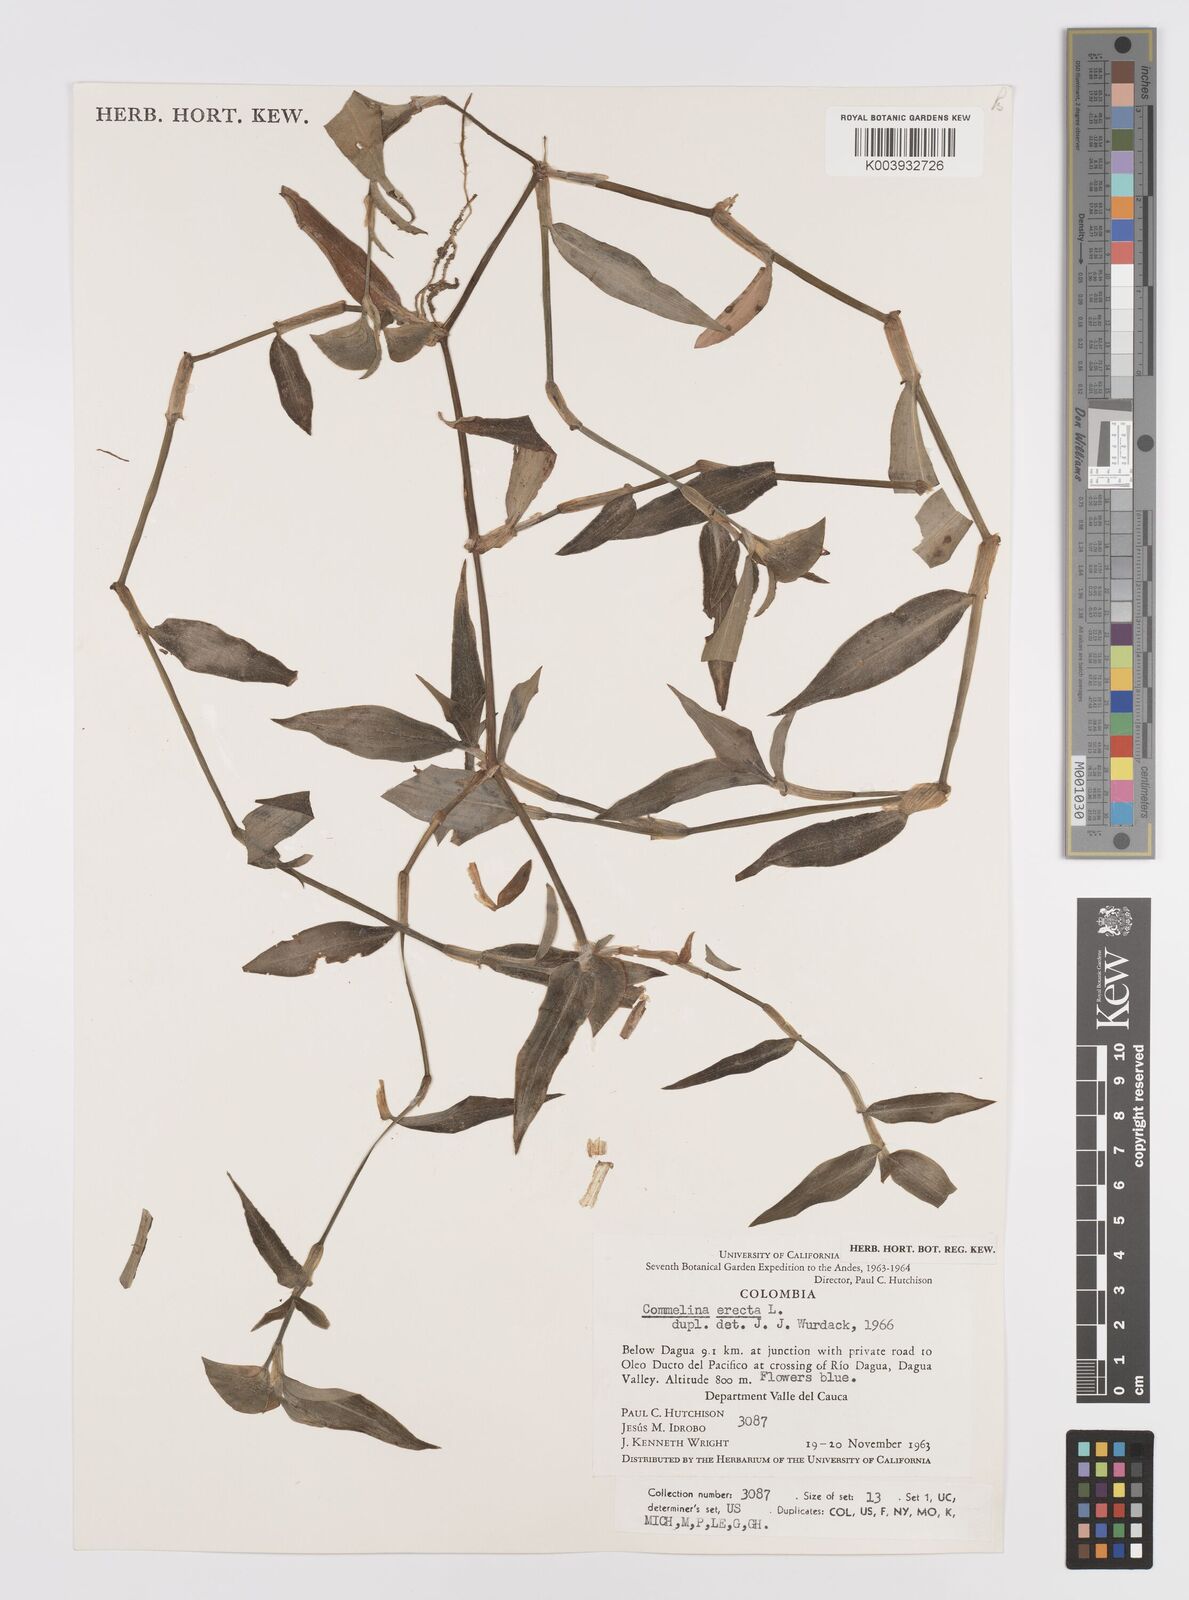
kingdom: Plantae
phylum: Tracheophyta
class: Liliopsida
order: Commelinales
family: Commelinaceae
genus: Commelina
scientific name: Commelina erecta
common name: Blousel blommetjie
